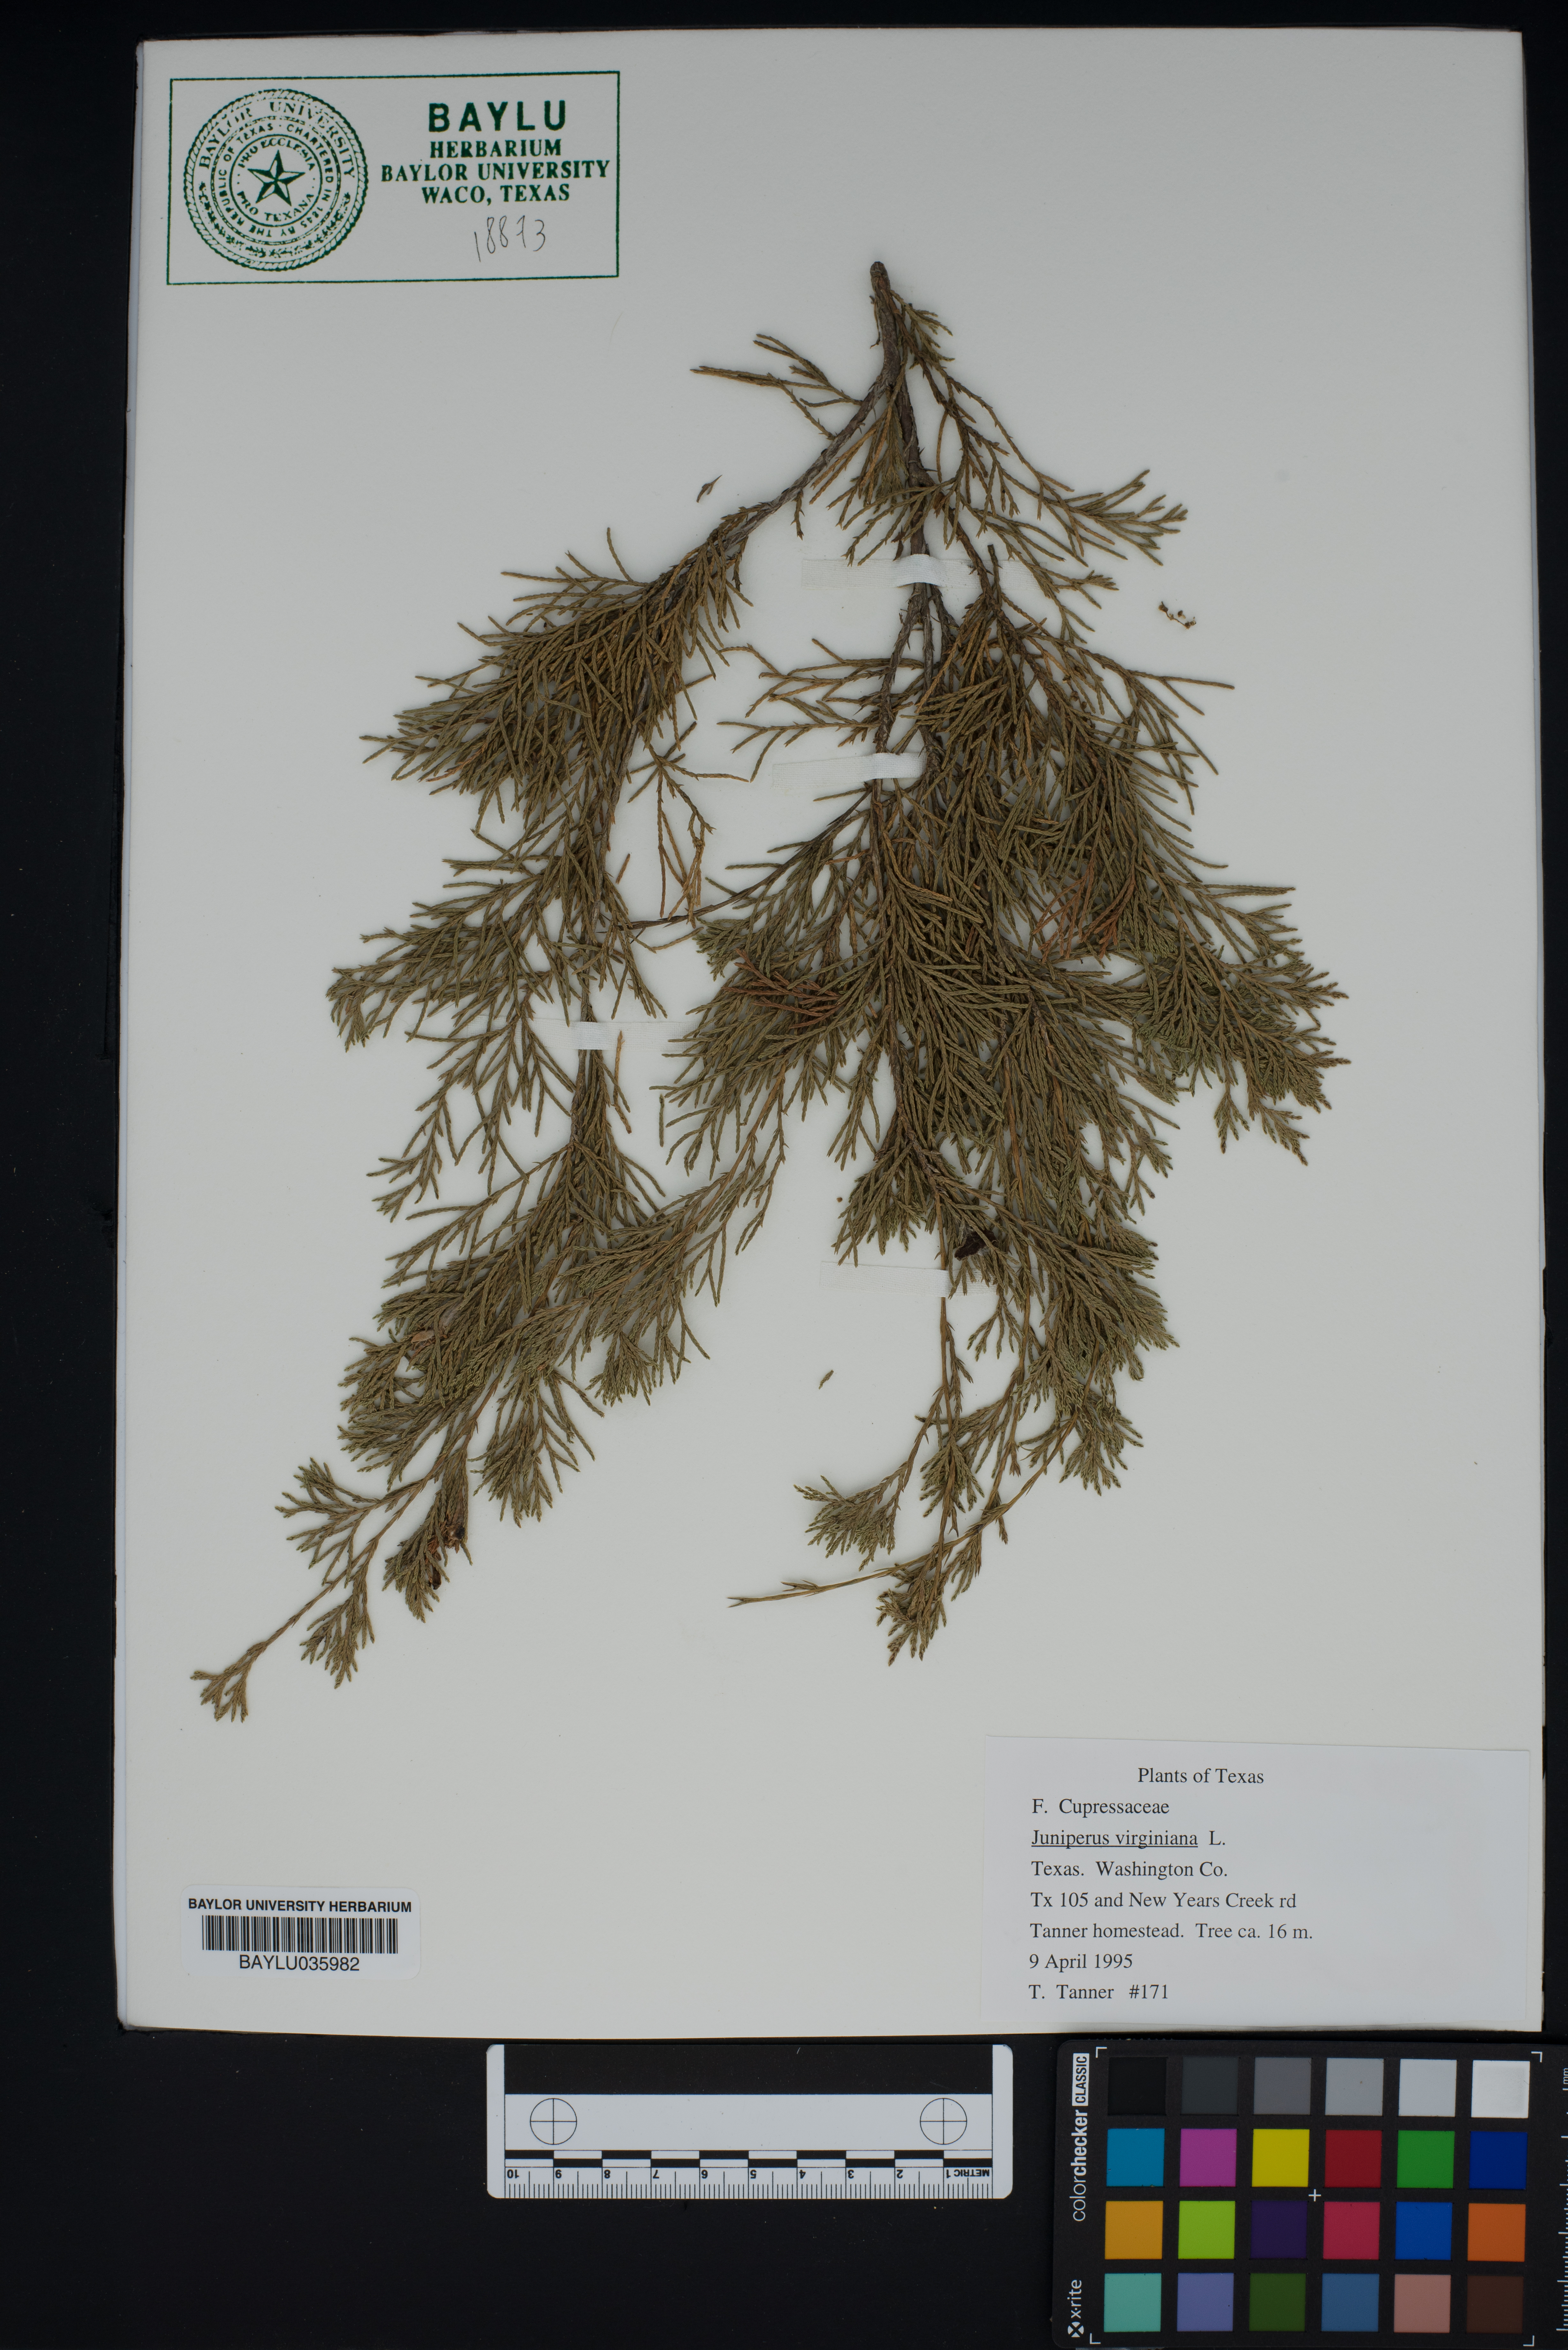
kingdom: Plantae
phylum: Tracheophyta
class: Pinopsida
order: Pinales
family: Cupressaceae
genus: Juniperus
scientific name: Juniperus virginiana
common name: Red juniper
